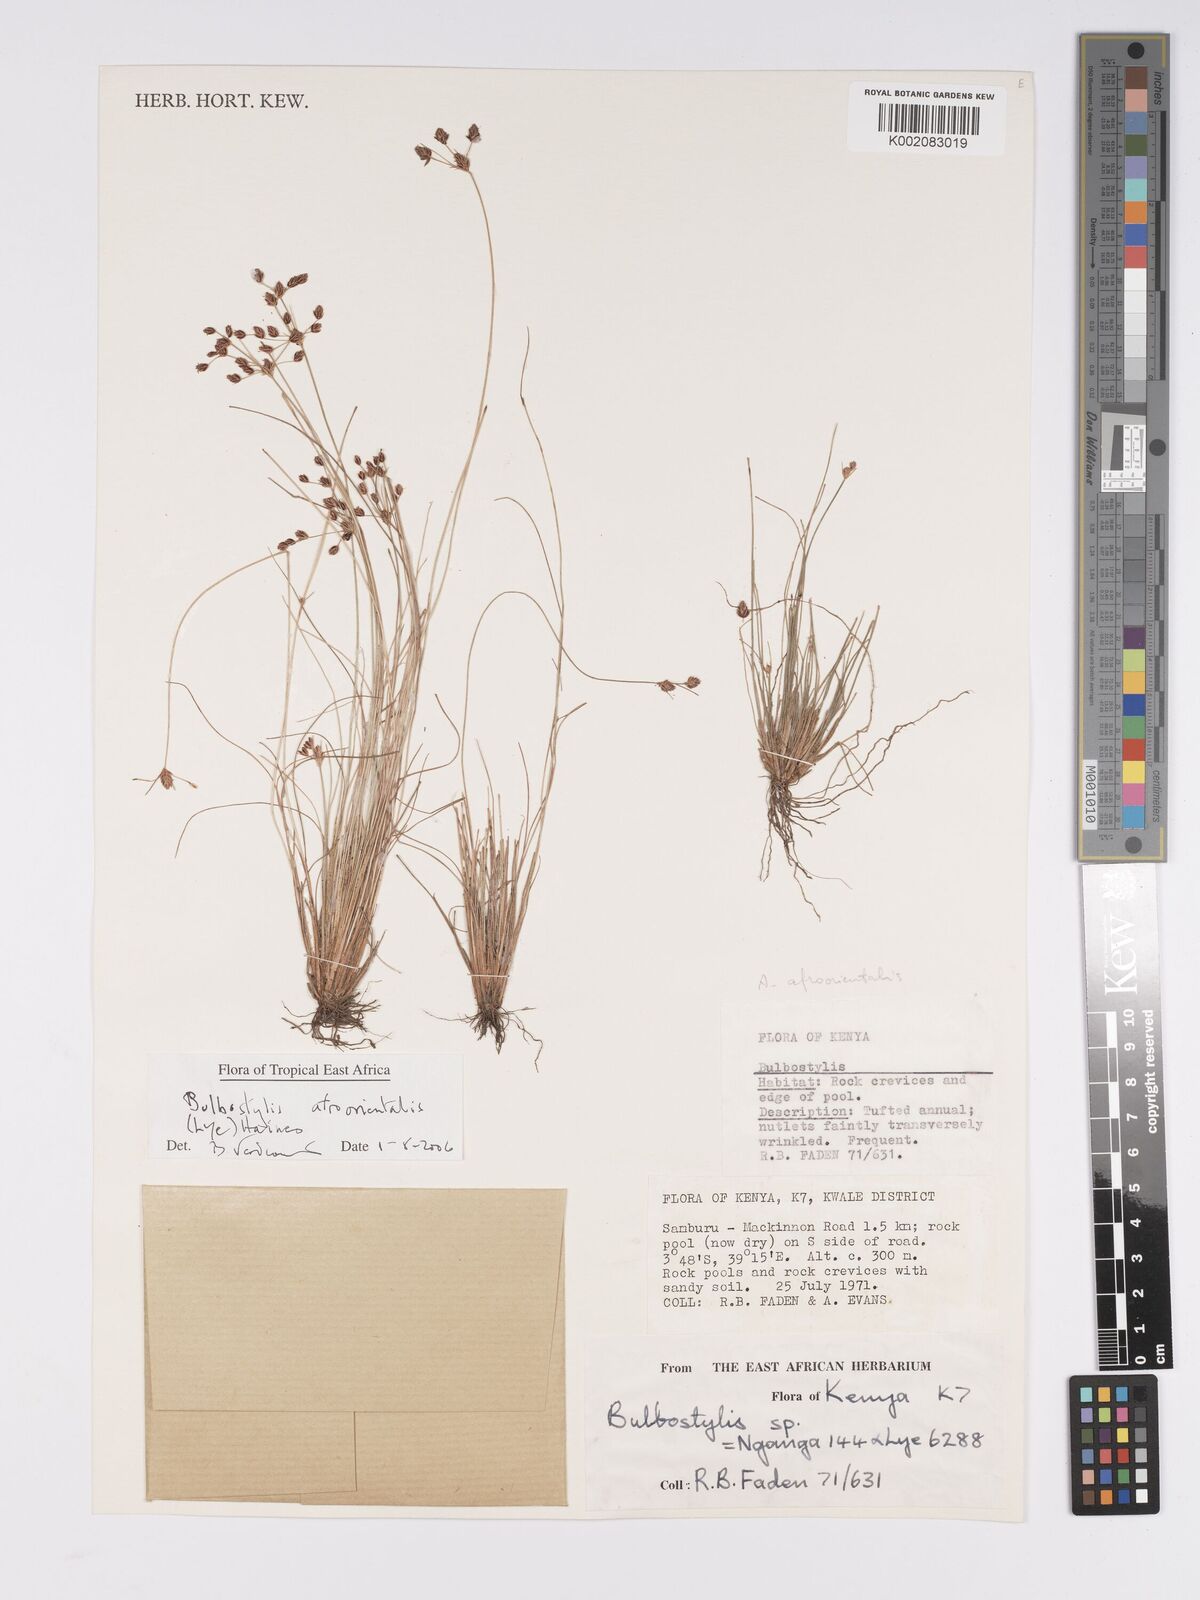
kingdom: Plantae
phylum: Tracheophyta
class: Liliopsida
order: Poales
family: Cyperaceae
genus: Bulbostylis
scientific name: Bulbostylis afroorientalis
